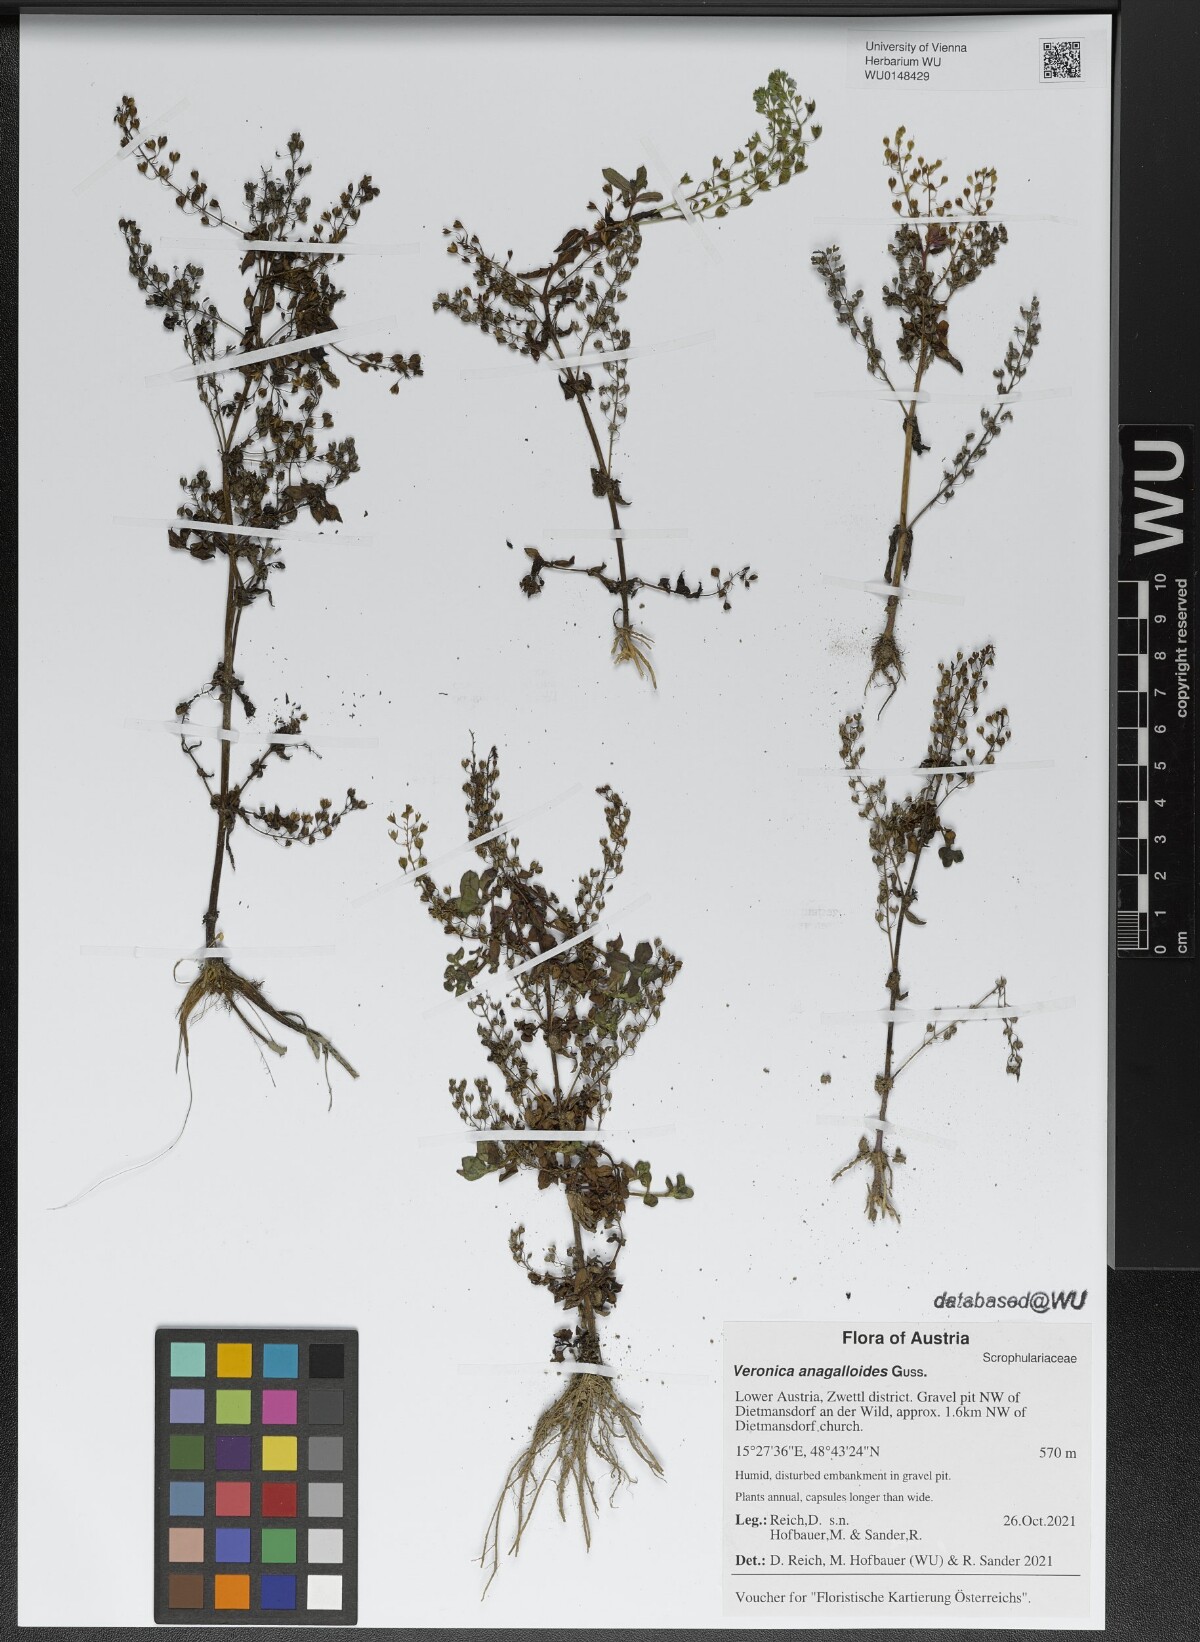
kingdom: Plantae
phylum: Tracheophyta
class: Magnoliopsida
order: Lamiales
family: Plantaginaceae
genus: Veronica
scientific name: Veronica anagalloides
